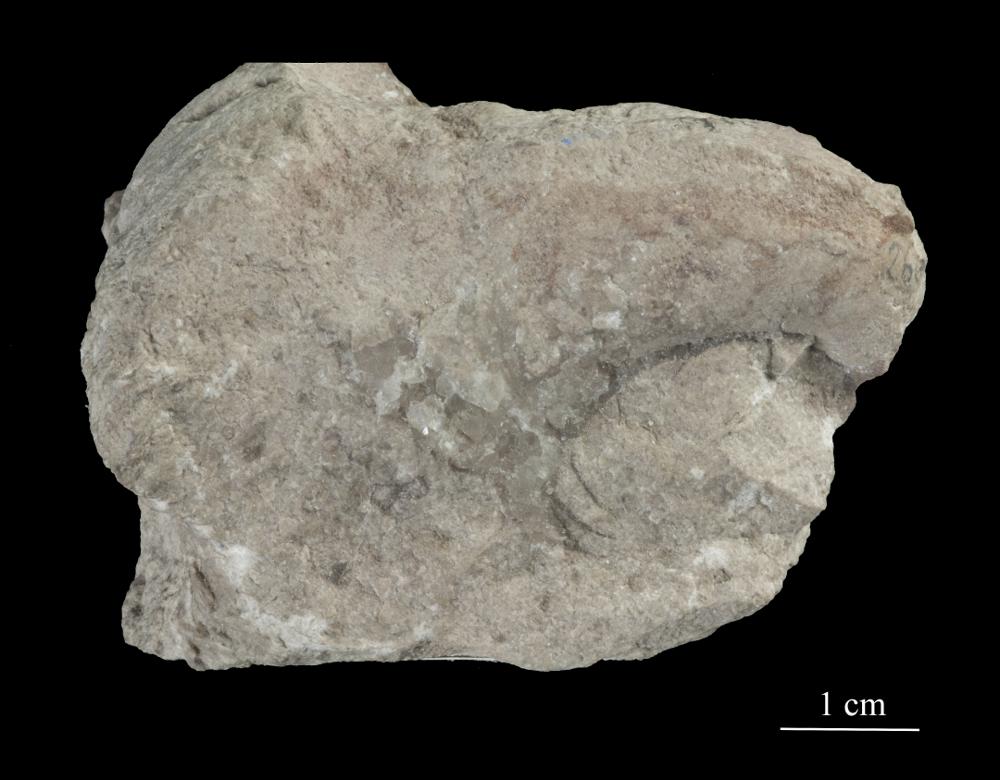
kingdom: Animalia
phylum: Mollusca
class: Gastropoda
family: Bucaniidae
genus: Bucania
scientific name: Bucania cornu
